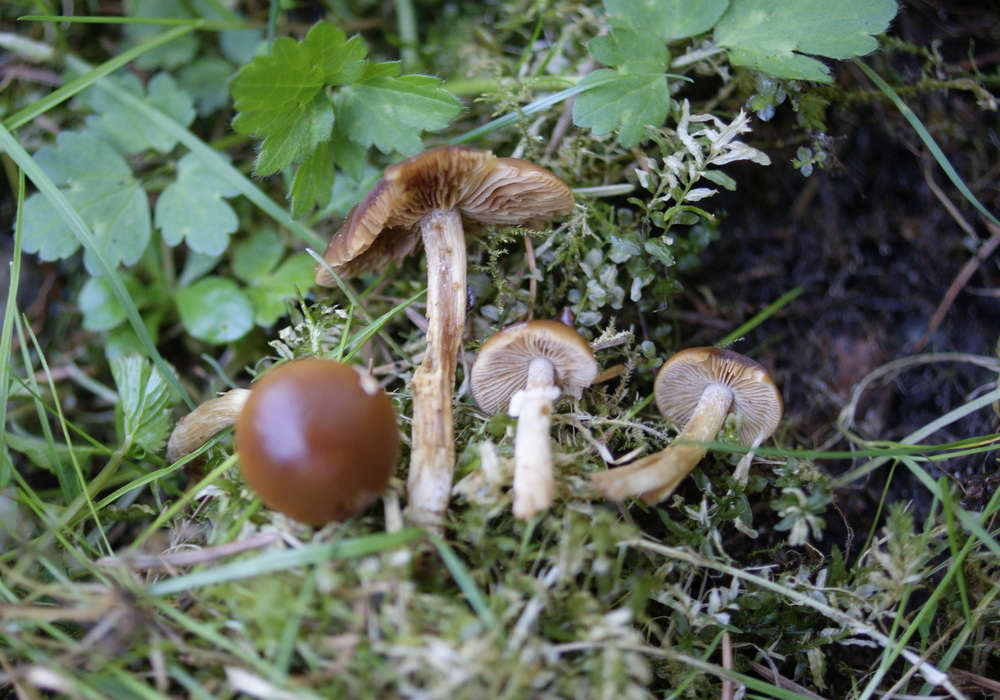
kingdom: Fungi
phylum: Basidiomycota
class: Agaricomycetes
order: Agaricales
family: Bolbitiaceae
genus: Conocybe
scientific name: Conocybe aporos
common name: tidlig dansehat
